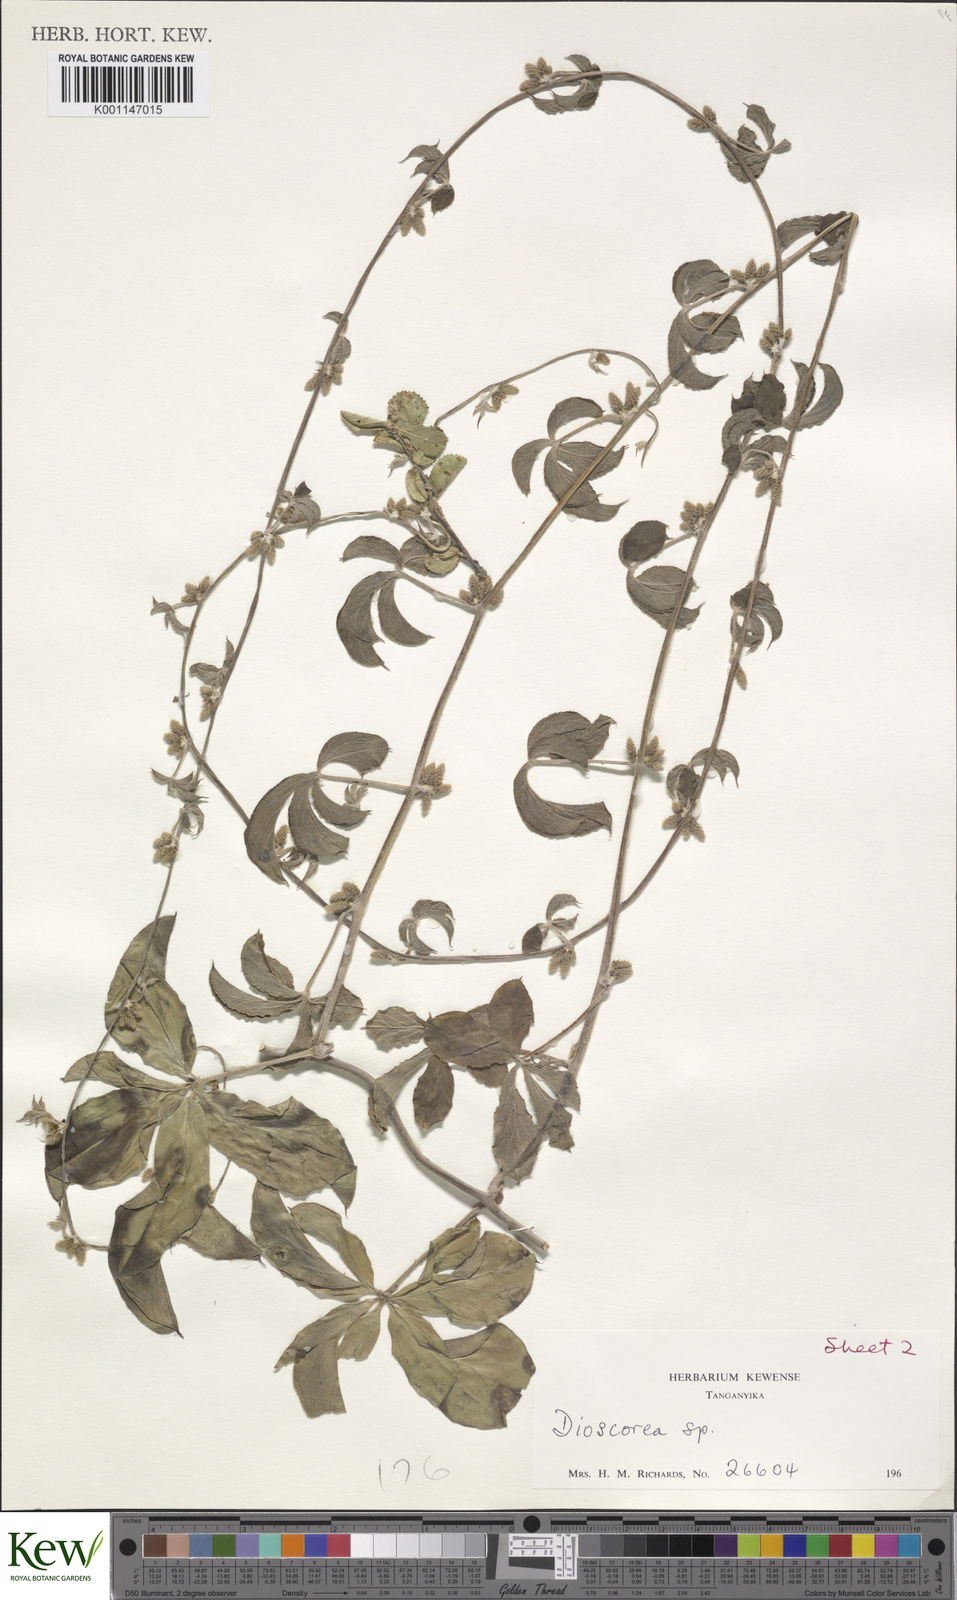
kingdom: Plantae
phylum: Tracheophyta
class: Liliopsida
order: Dioscoreales
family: Dioscoreaceae
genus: Dioscorea
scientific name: Dioscorea quartiniana
